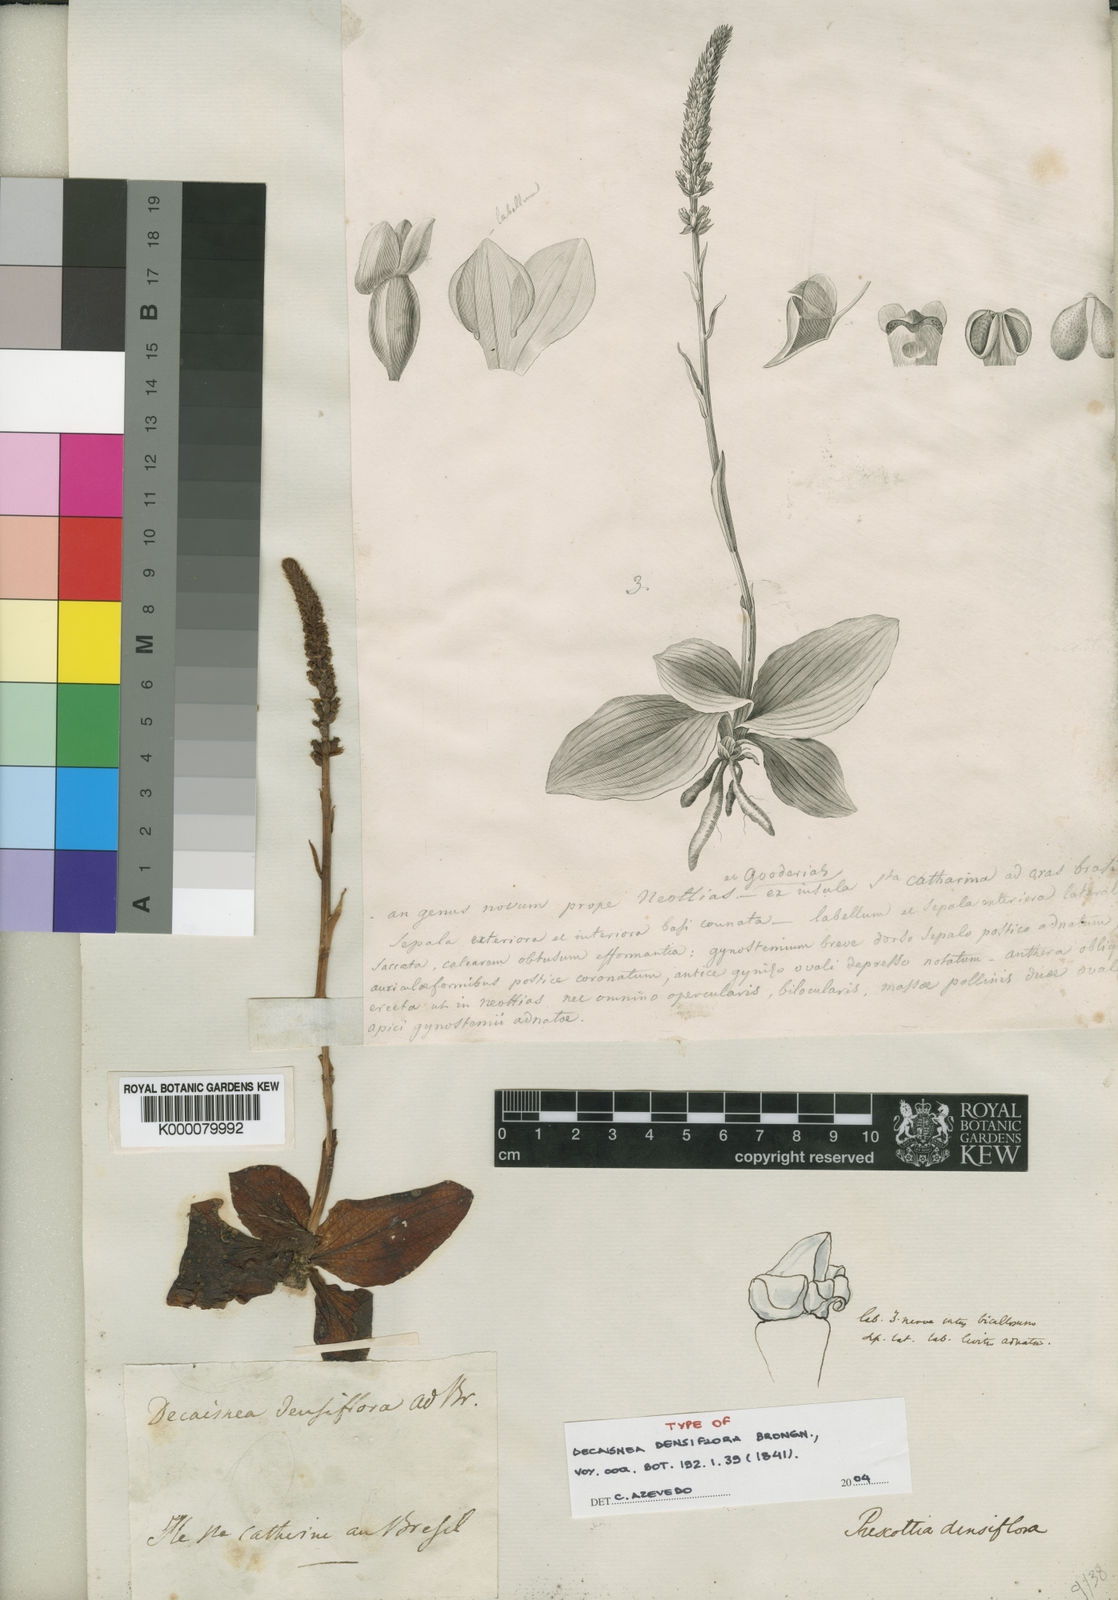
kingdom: Plantae
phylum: Tracheophyta
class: Liliopsida
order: Asparagales
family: Orchidaceae
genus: Prescottia
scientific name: Prescottia densiflora
